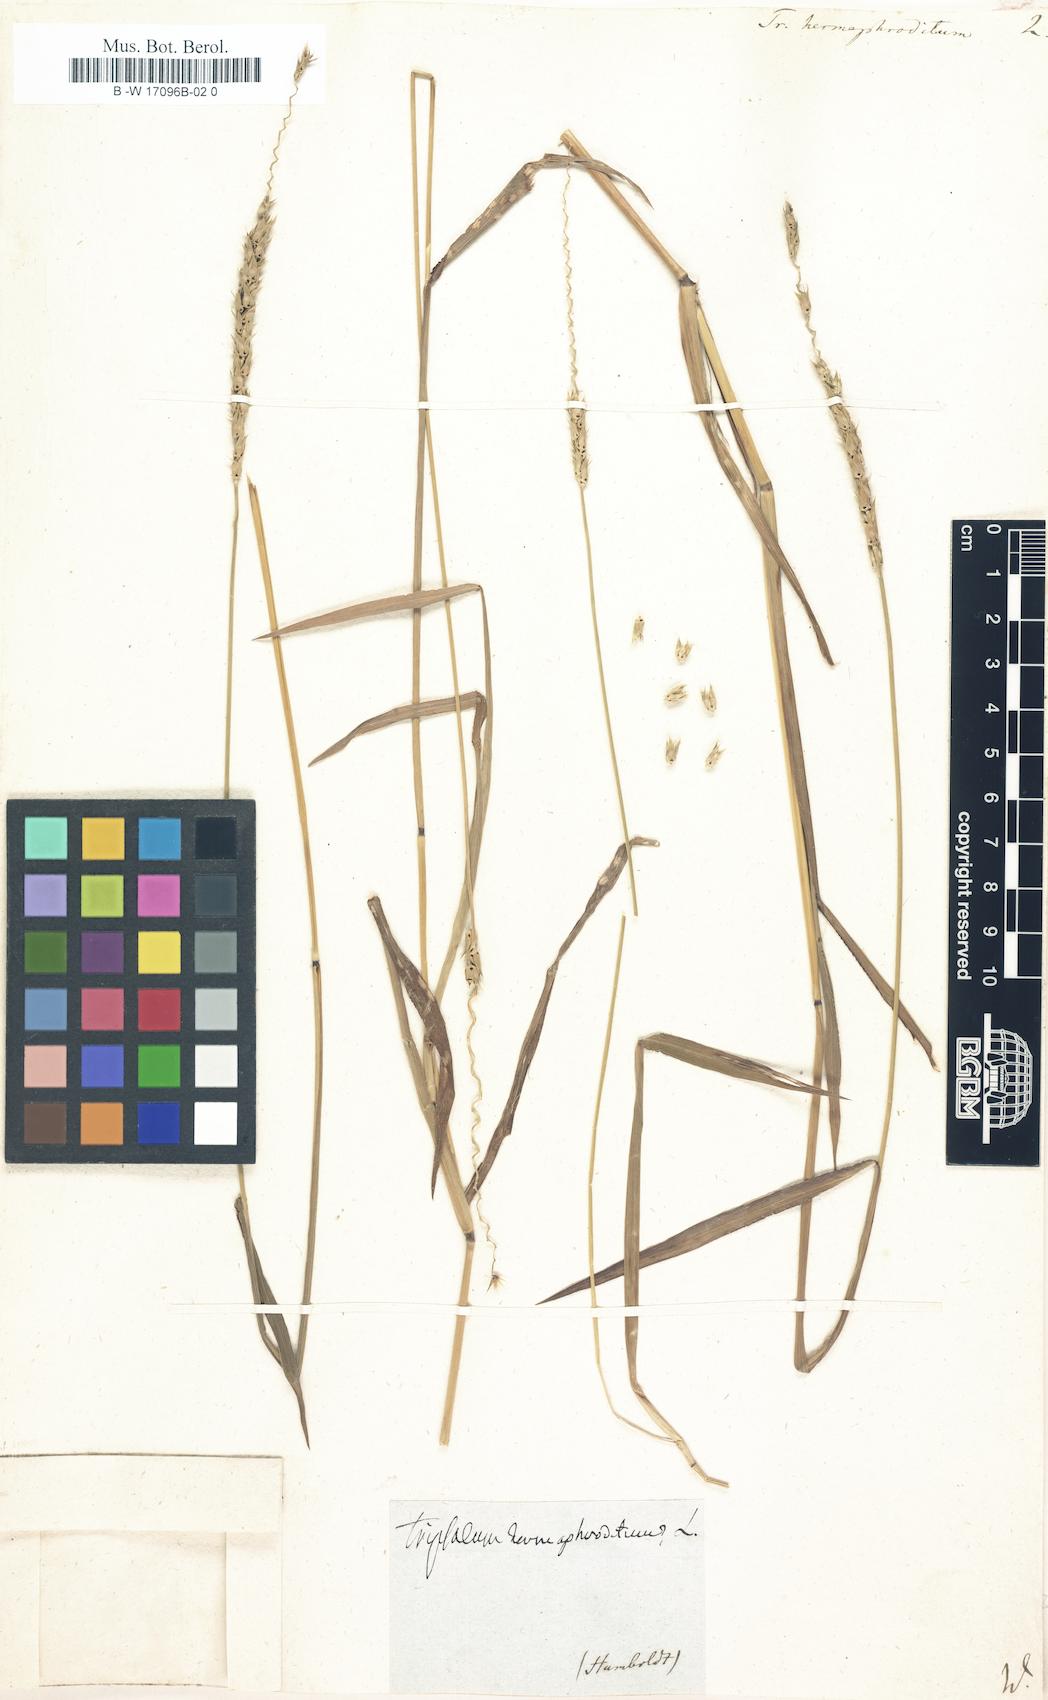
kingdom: Plantae
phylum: Tracheophyta
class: Liliopsida
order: Poales
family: Poaceae
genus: Anthephora
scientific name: Anthephora hermaphrodita
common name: Oldfield grass
